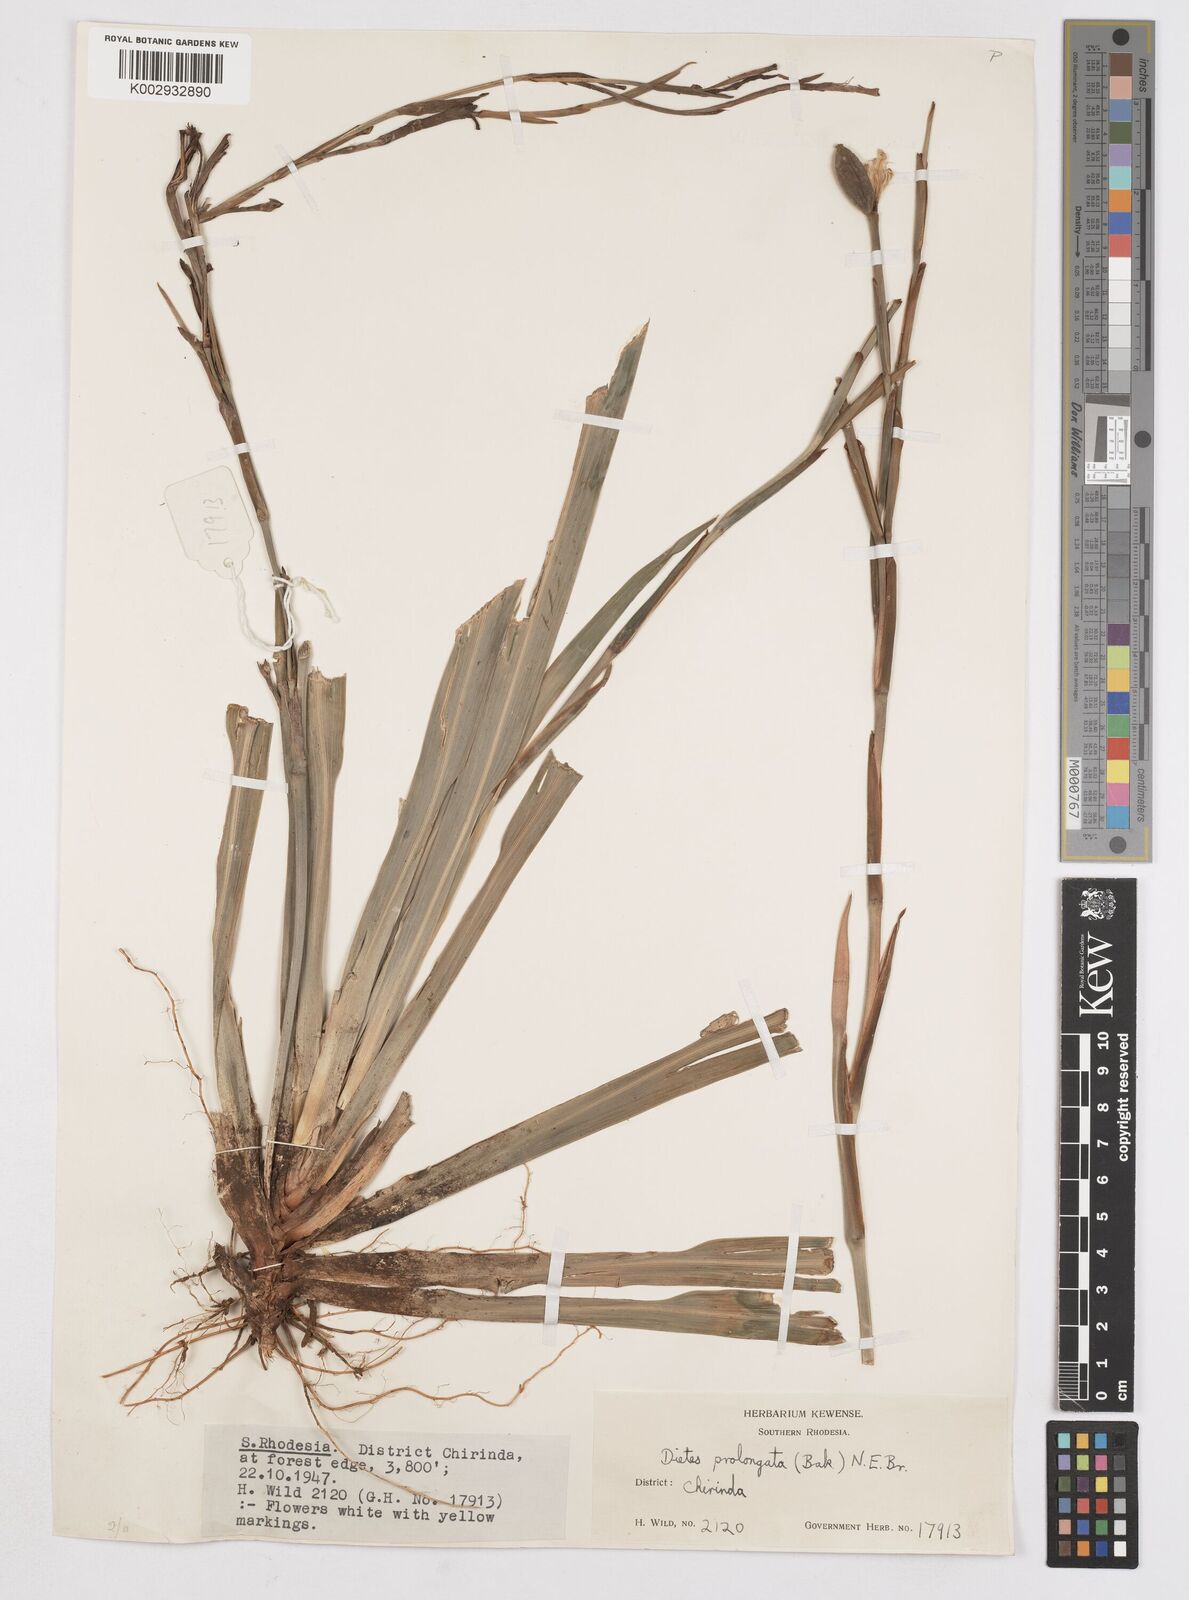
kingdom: Plantae
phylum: Tracheophyta
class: Liliopsida
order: Asparagales
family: Iridaceae
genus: Dietes
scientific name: Dietes
